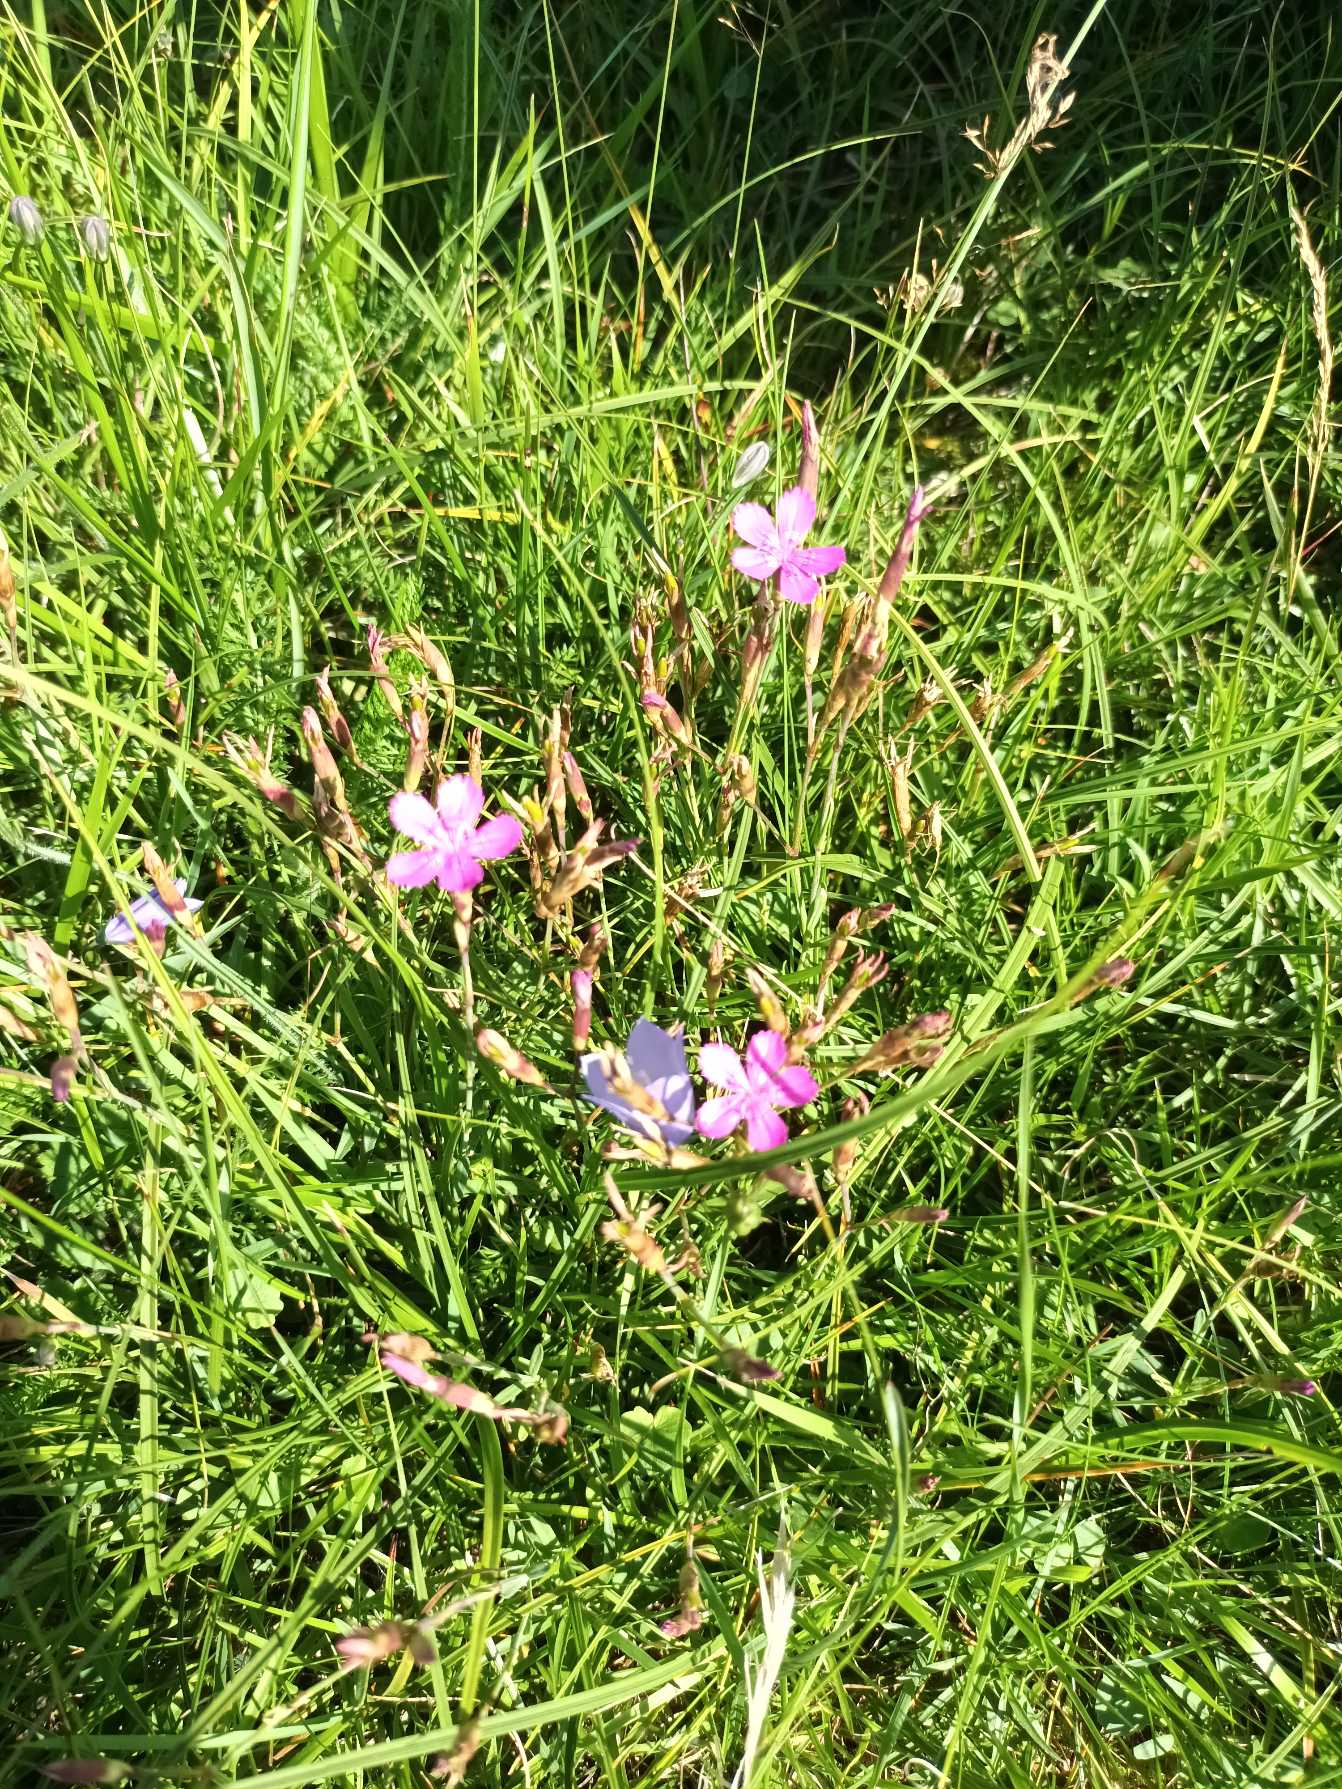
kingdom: Plantae
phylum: Tracheophyta
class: Magnoliopsida
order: Caryophyllales
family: Caryophyllaceae
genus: Dianthus
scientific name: Dianthus deltoides
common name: Bakke-nellike
